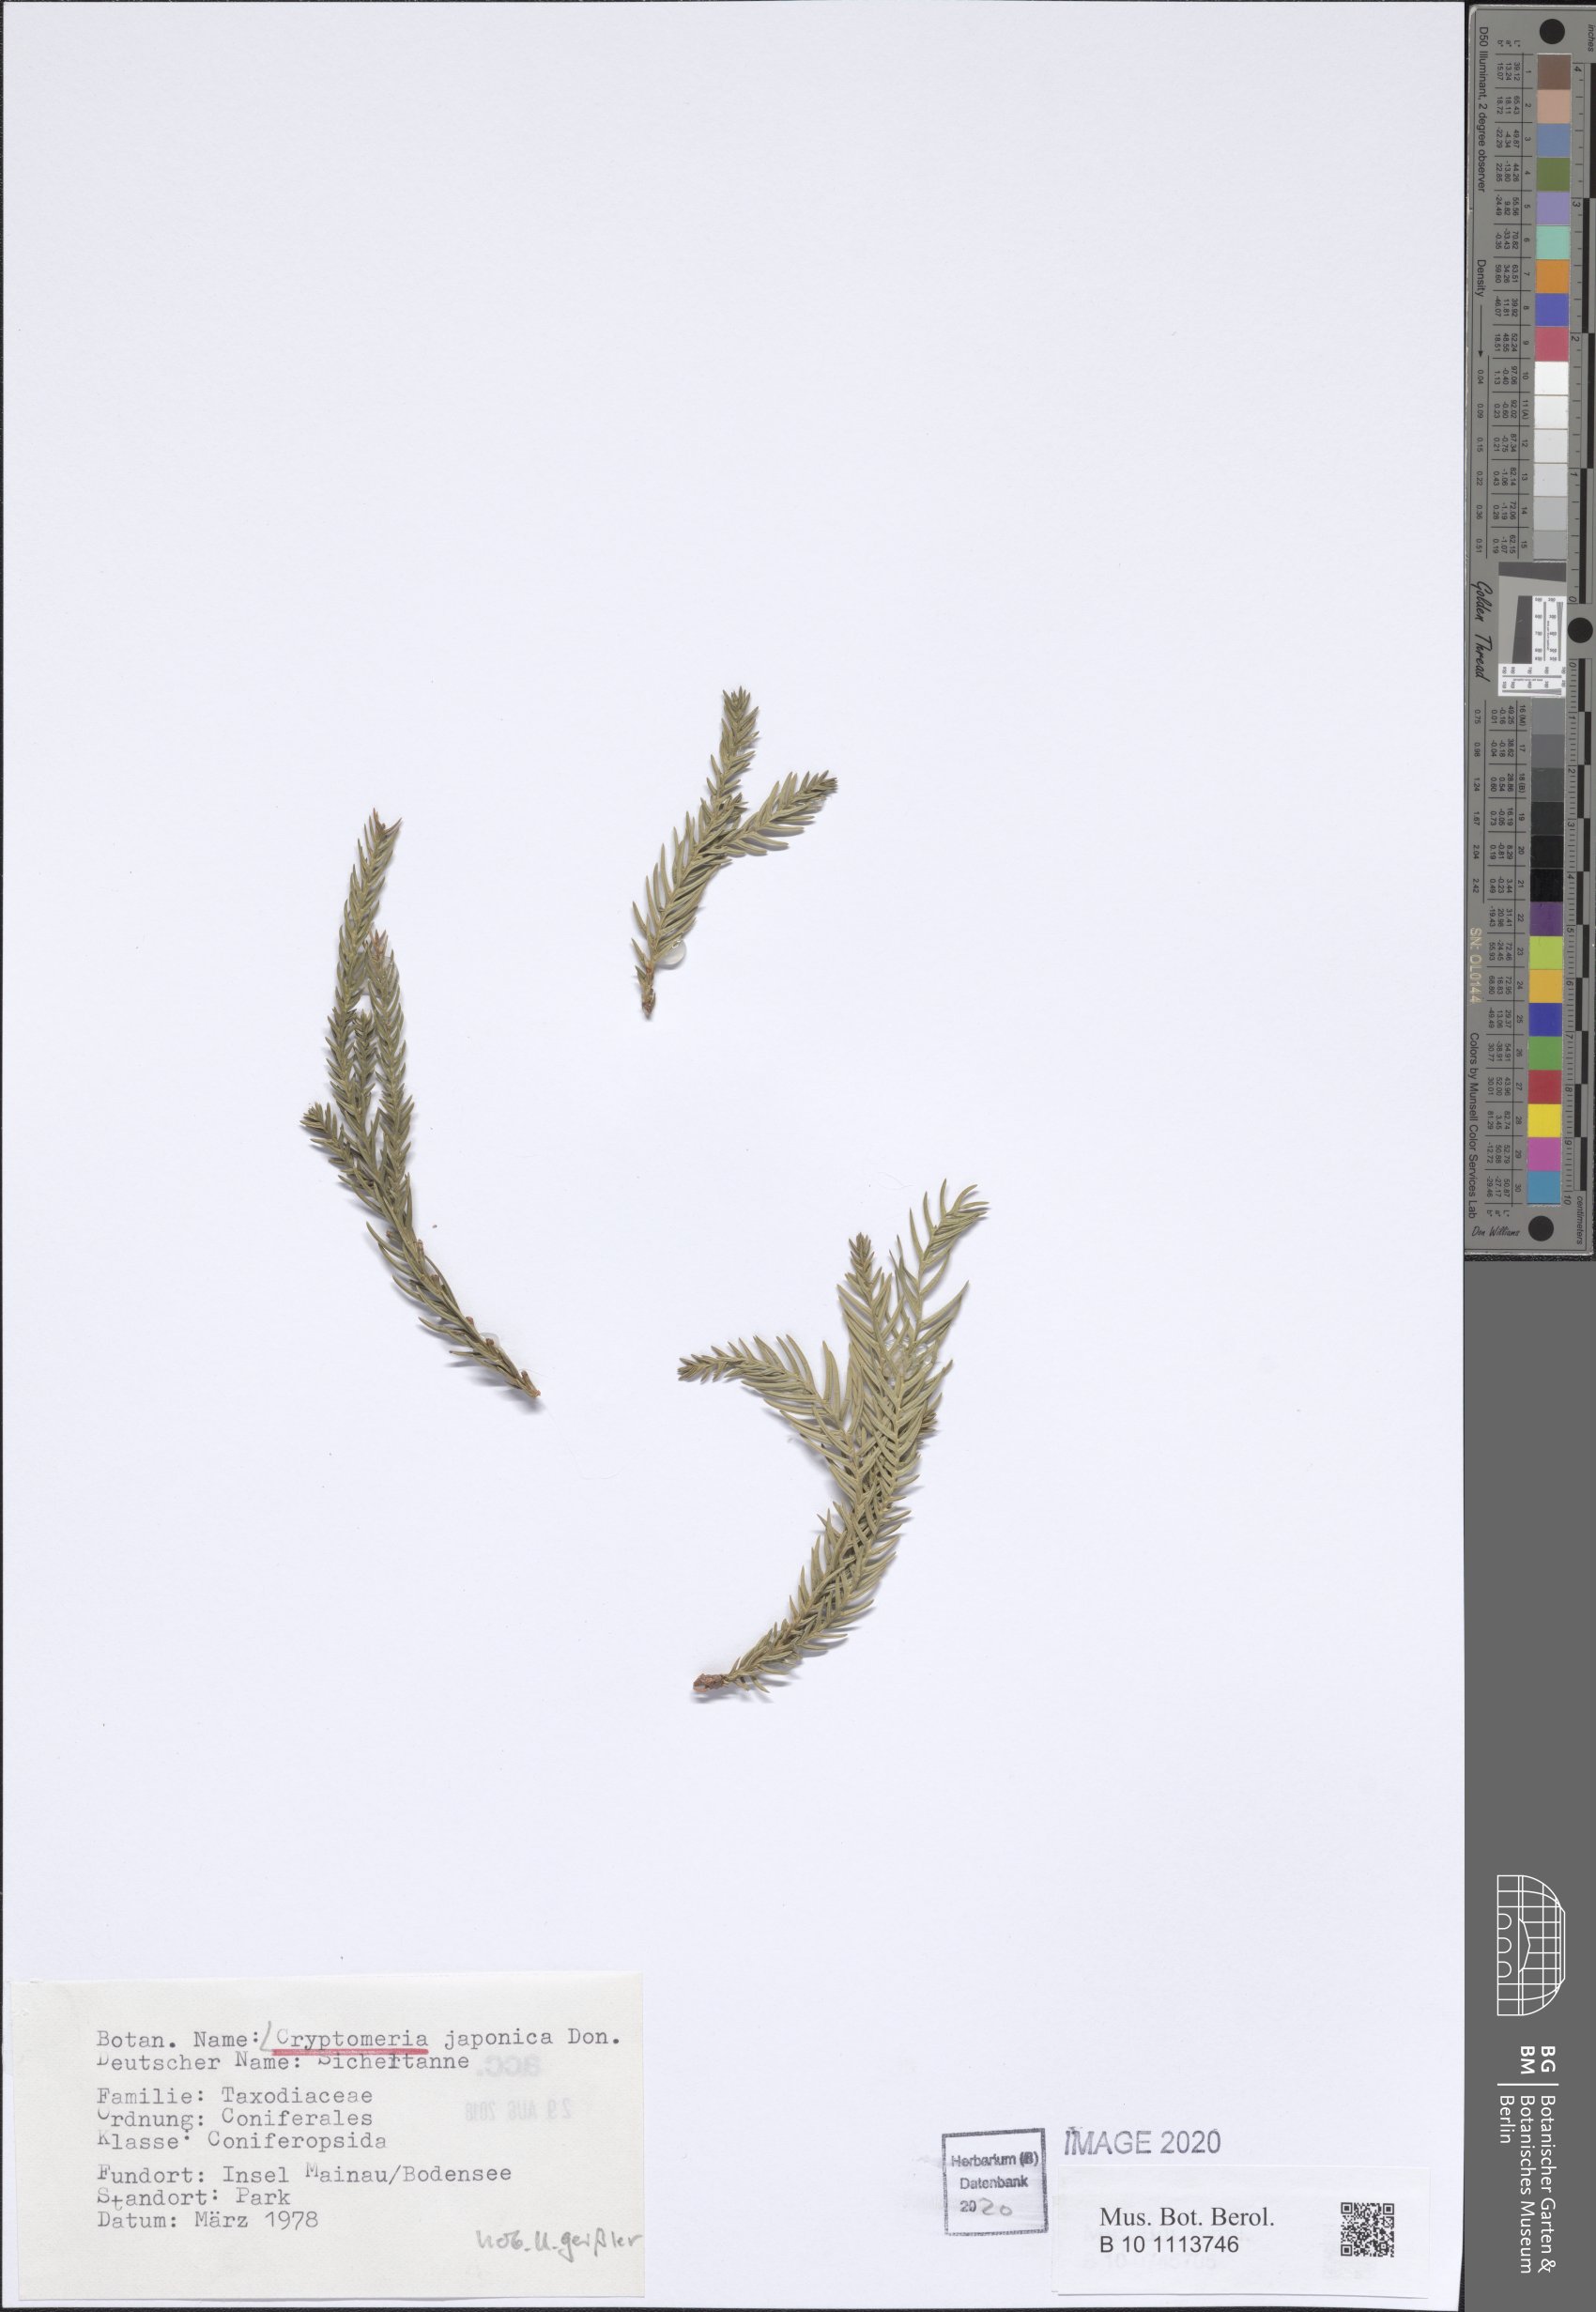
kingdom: Plantae
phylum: Tracheophyta
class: Pinopsida
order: Pinales
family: Cupressaceae
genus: Cryptomeria
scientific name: Cryptomeria japonica
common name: Japanese cedar
